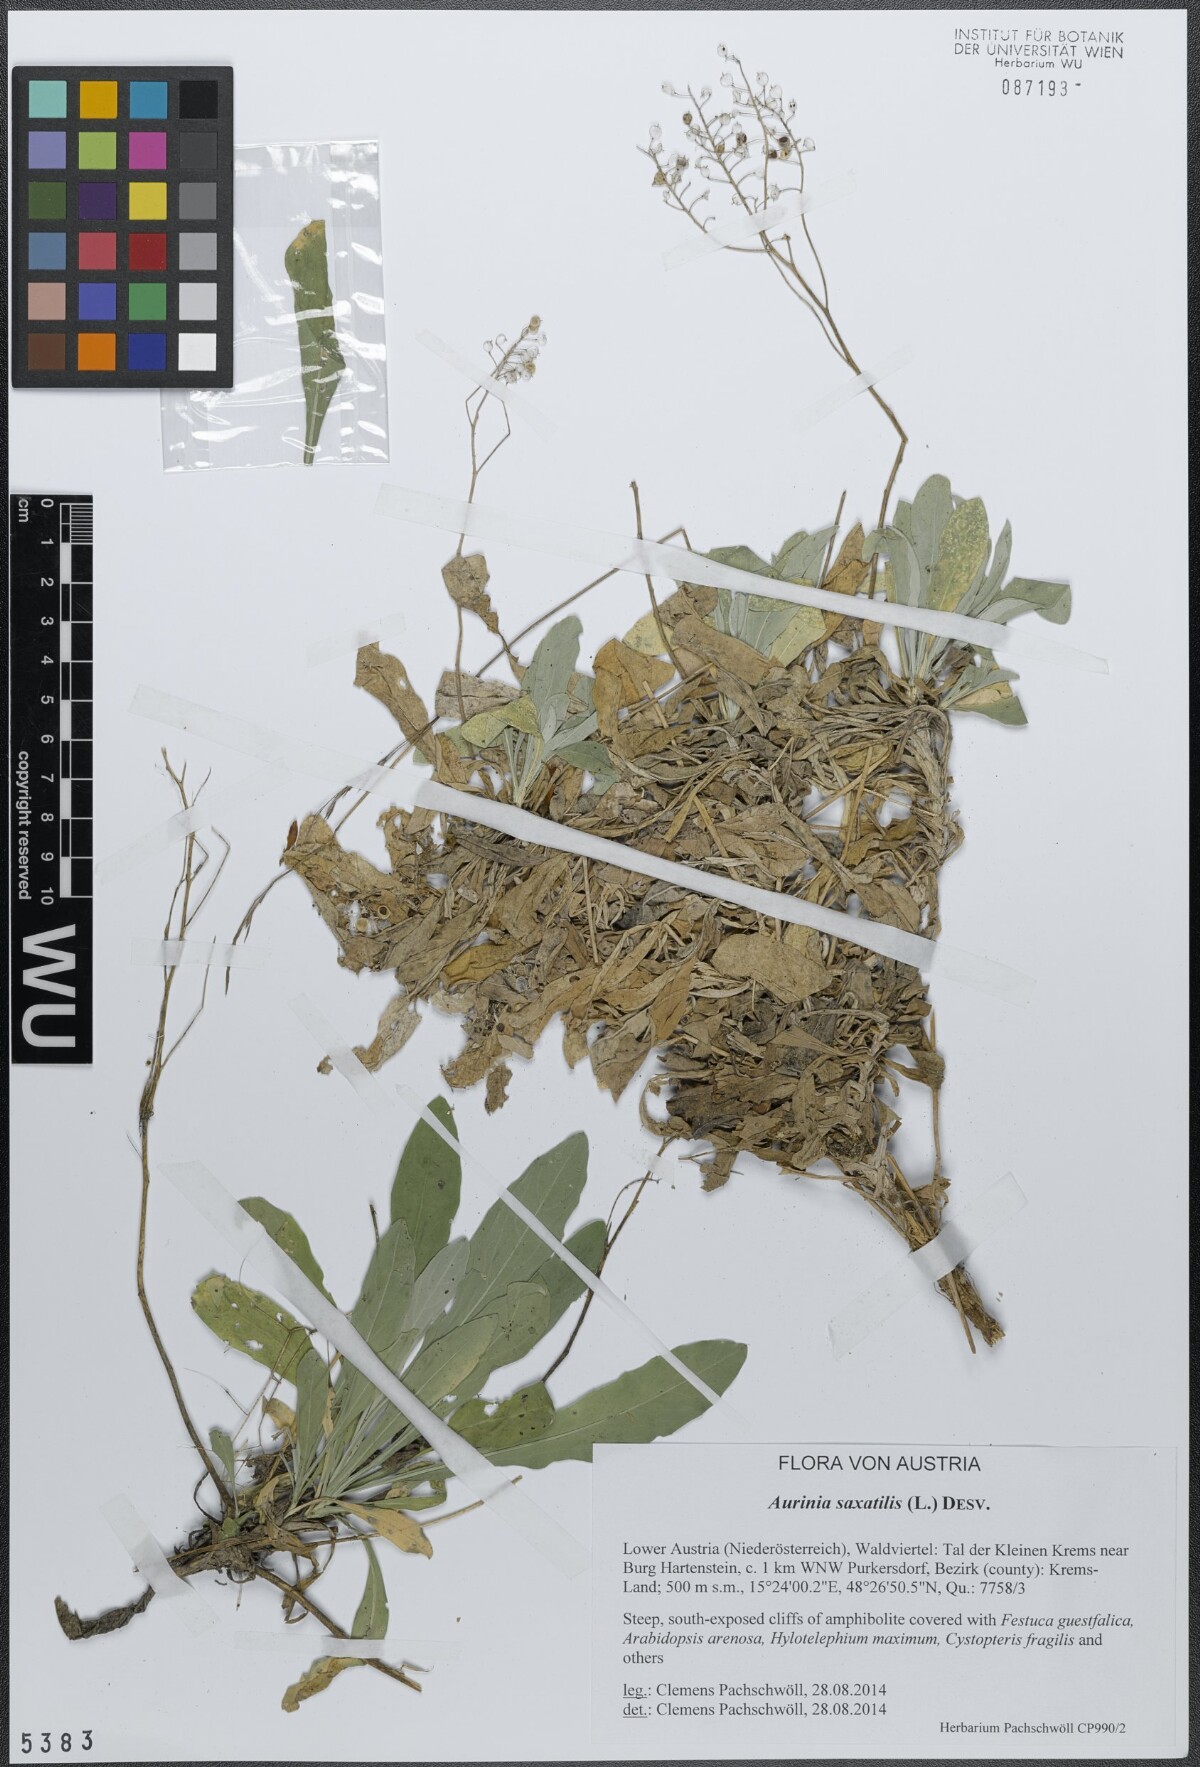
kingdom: Plantae
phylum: Tracheophyta
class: Magnoliopsida
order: Brassicales
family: Brassicaceae
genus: Aurinia
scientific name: Aurinia saxatilis
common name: Golden-tuft alyssum
